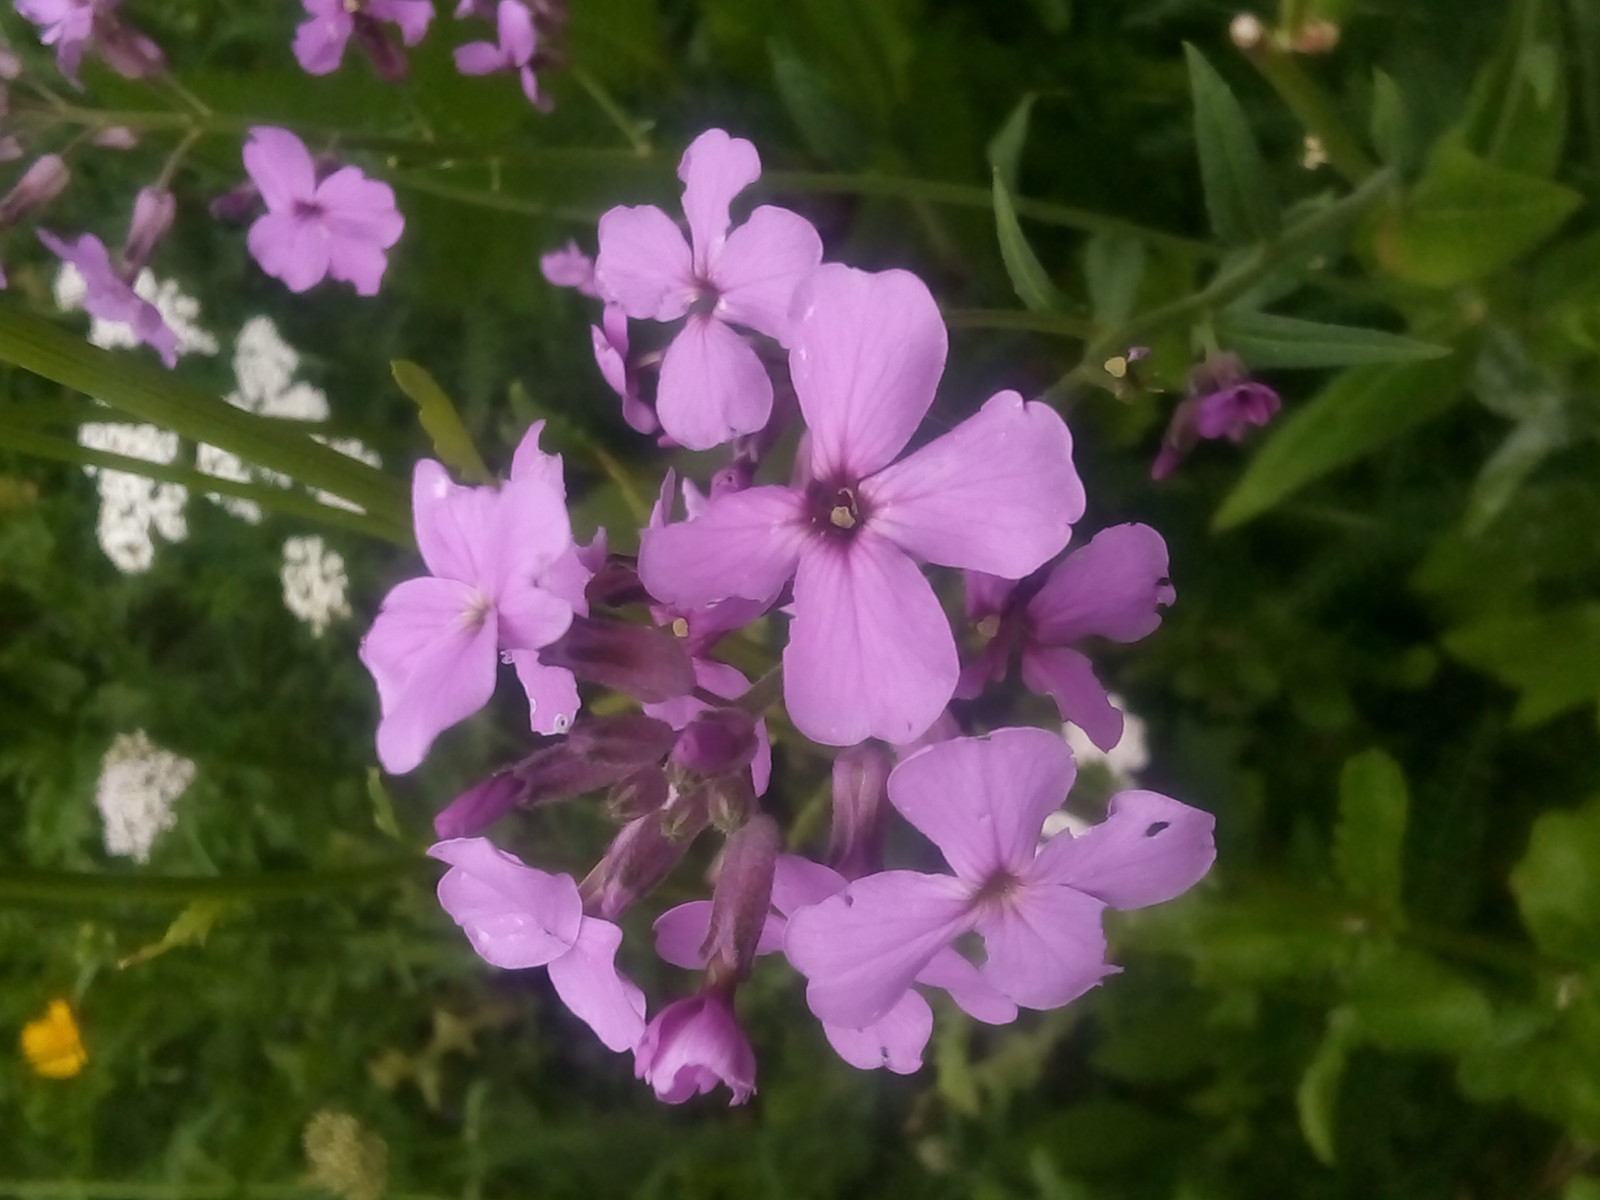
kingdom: Fungi
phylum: Ascomycota
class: Leotiomycetes
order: Helotiales
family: Erysiphaceae
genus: Erysiphe
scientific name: Erysiphe cruciferarum
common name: korsblomst-meldug
